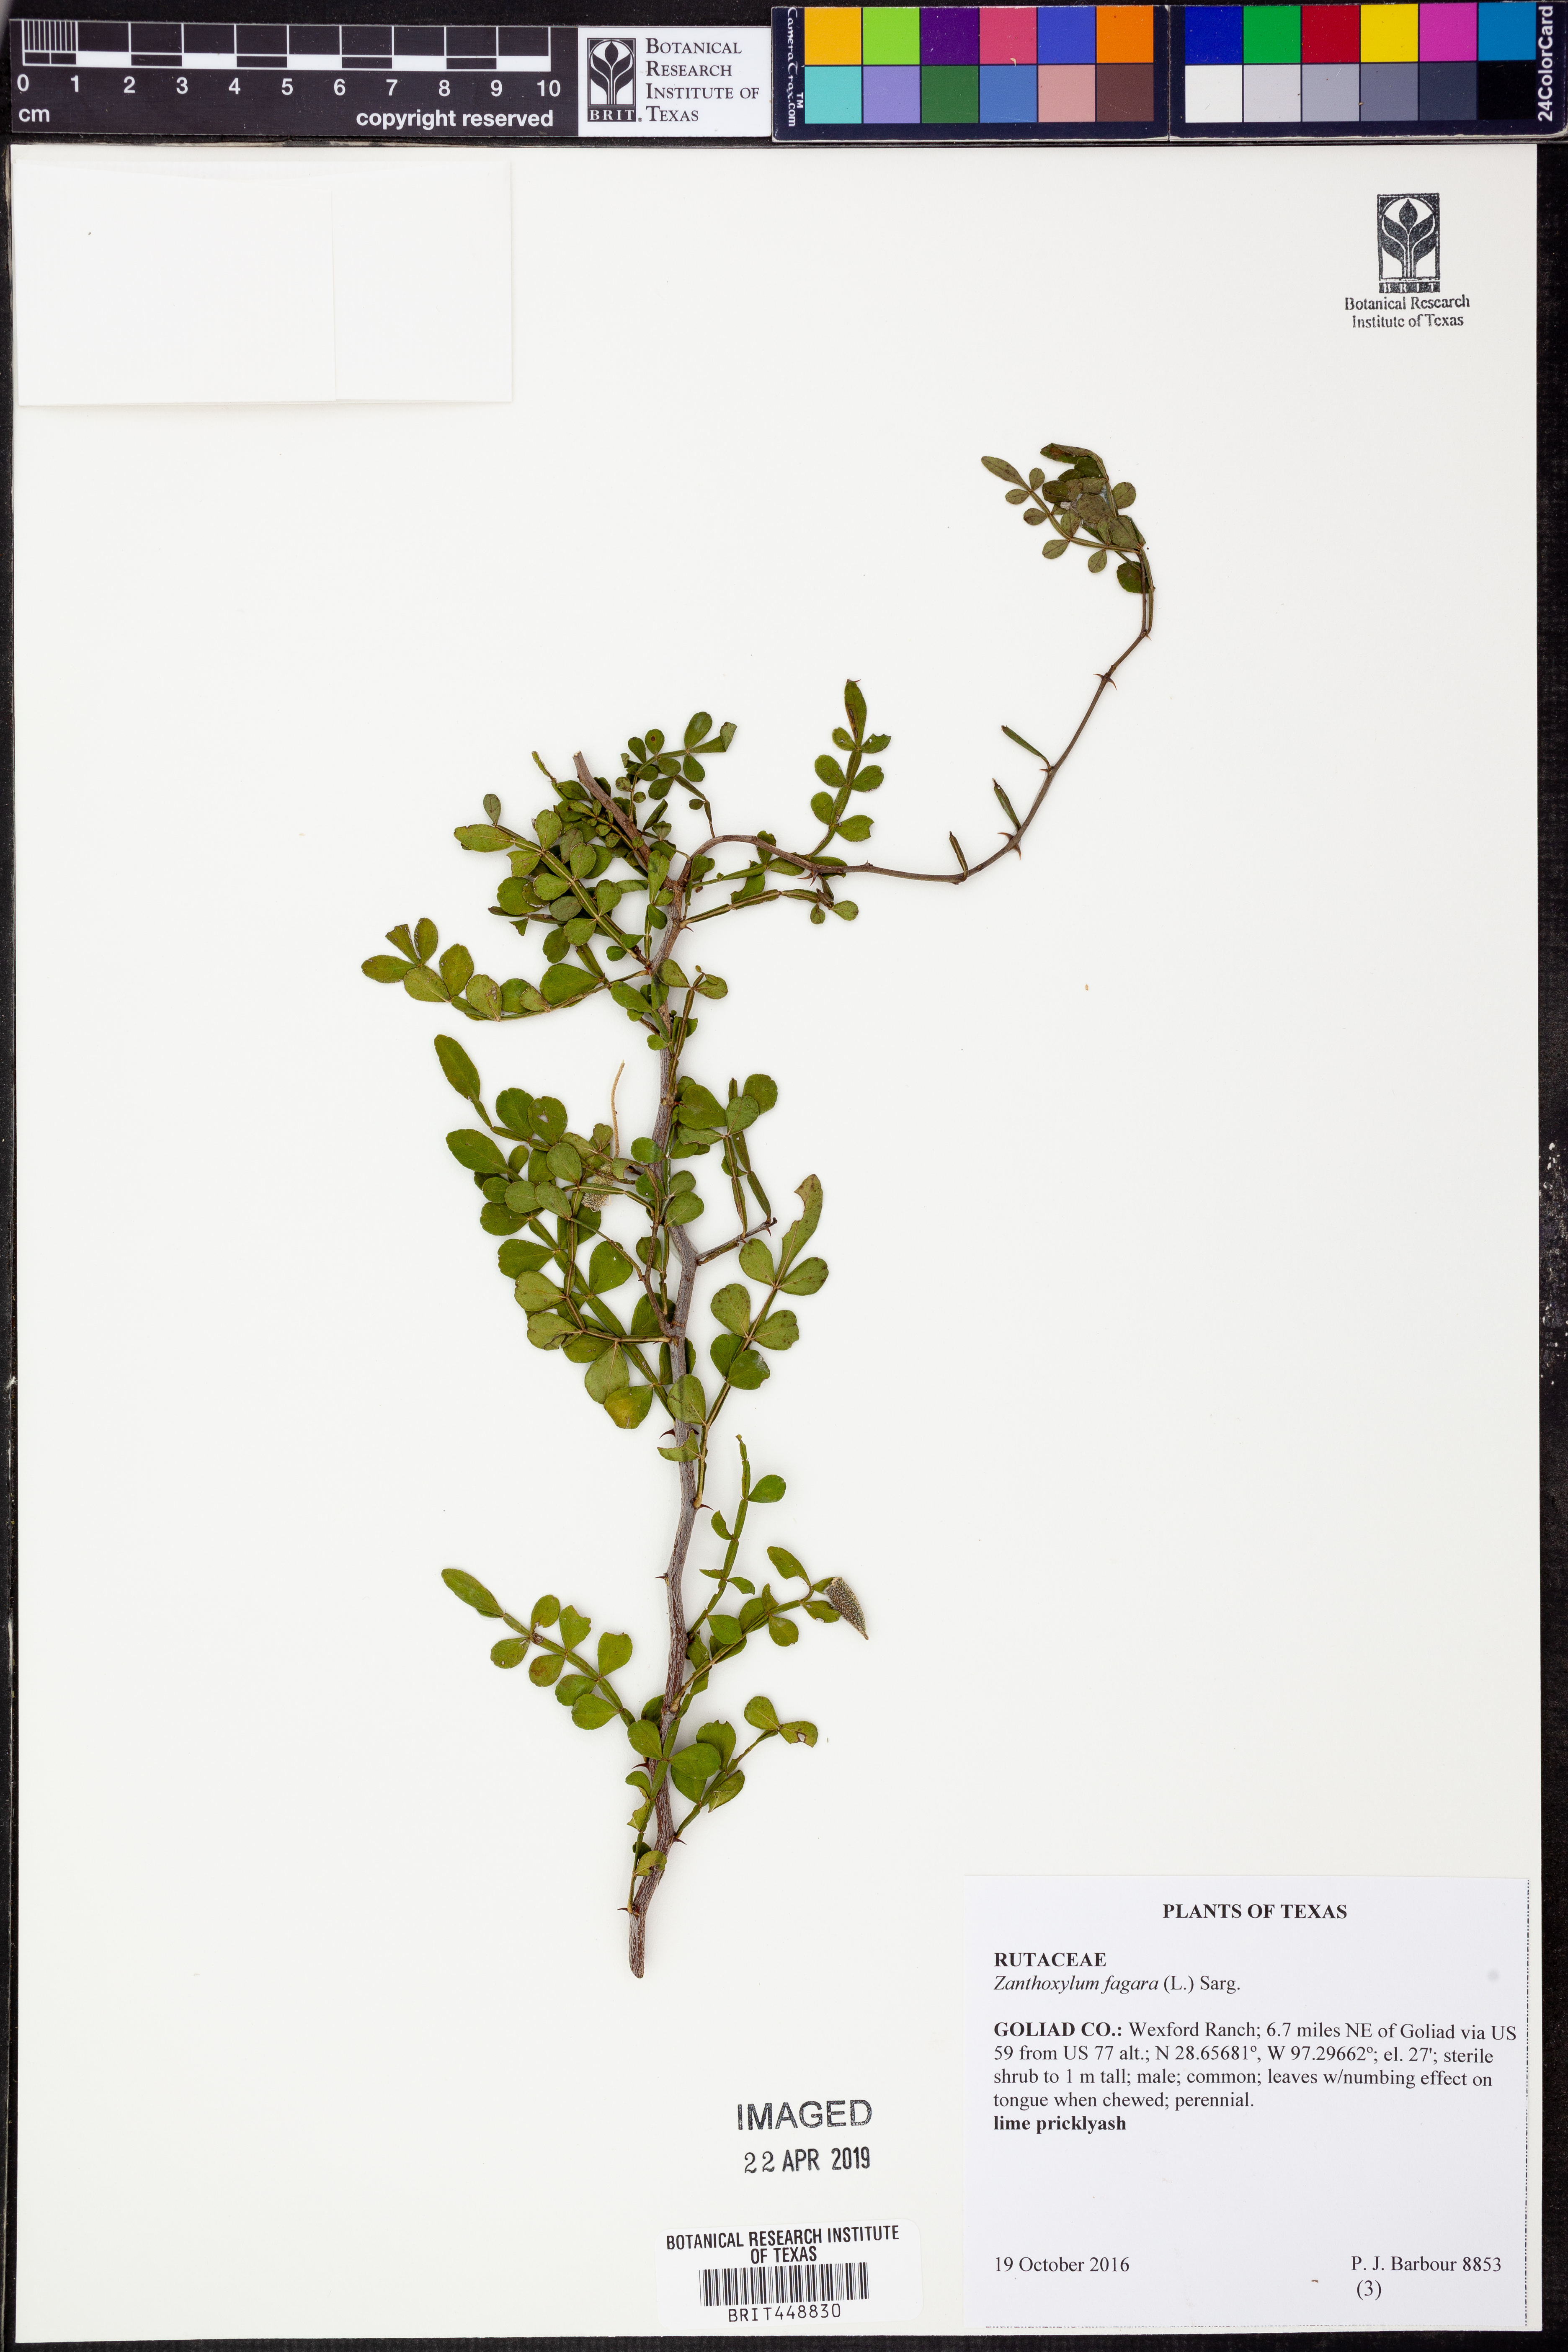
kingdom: Plantae
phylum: Tracheophyta
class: Magnoliopsida
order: Sapindales
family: Rutaceae
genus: Zanthoxylum
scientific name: Zanthoxylum fagara
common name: Lime prickly-ash
